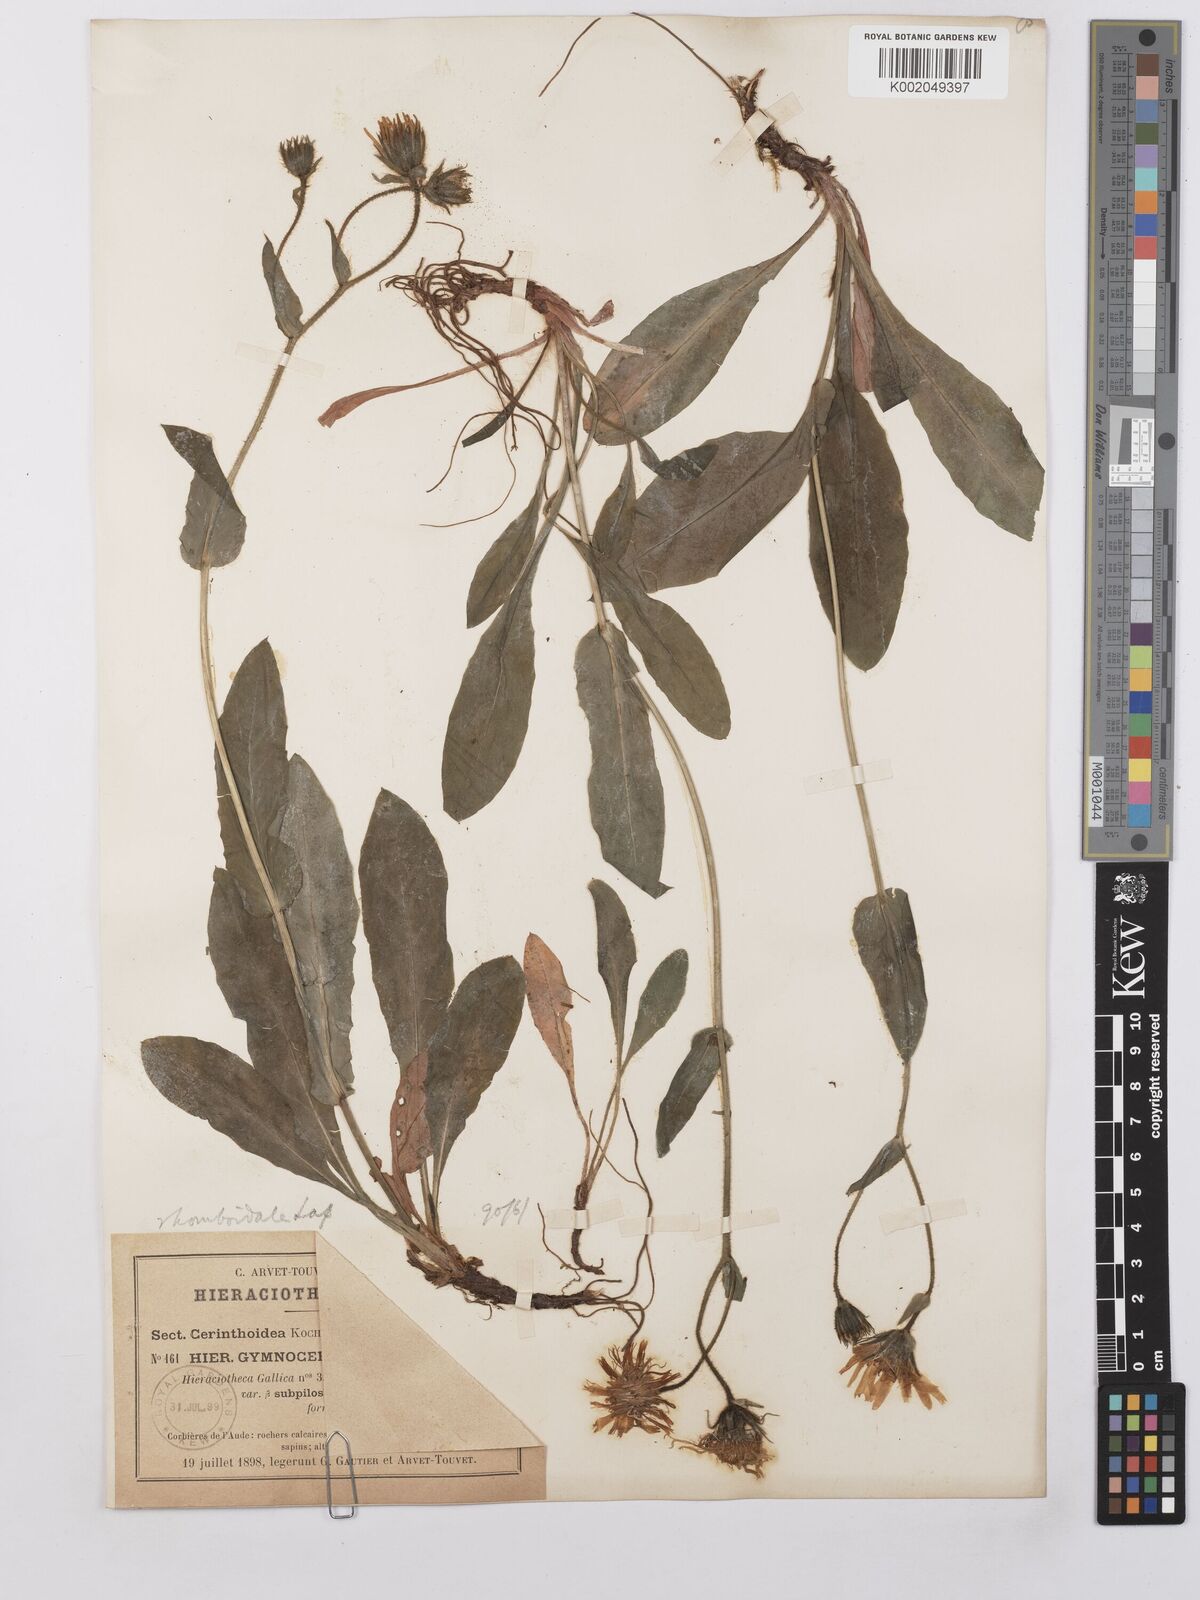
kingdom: Plantae
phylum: Tracheophyta
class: Magnoliopsida
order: Asterales
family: Asteraceae
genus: Hieracium
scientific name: Hieracium cerinthoides
